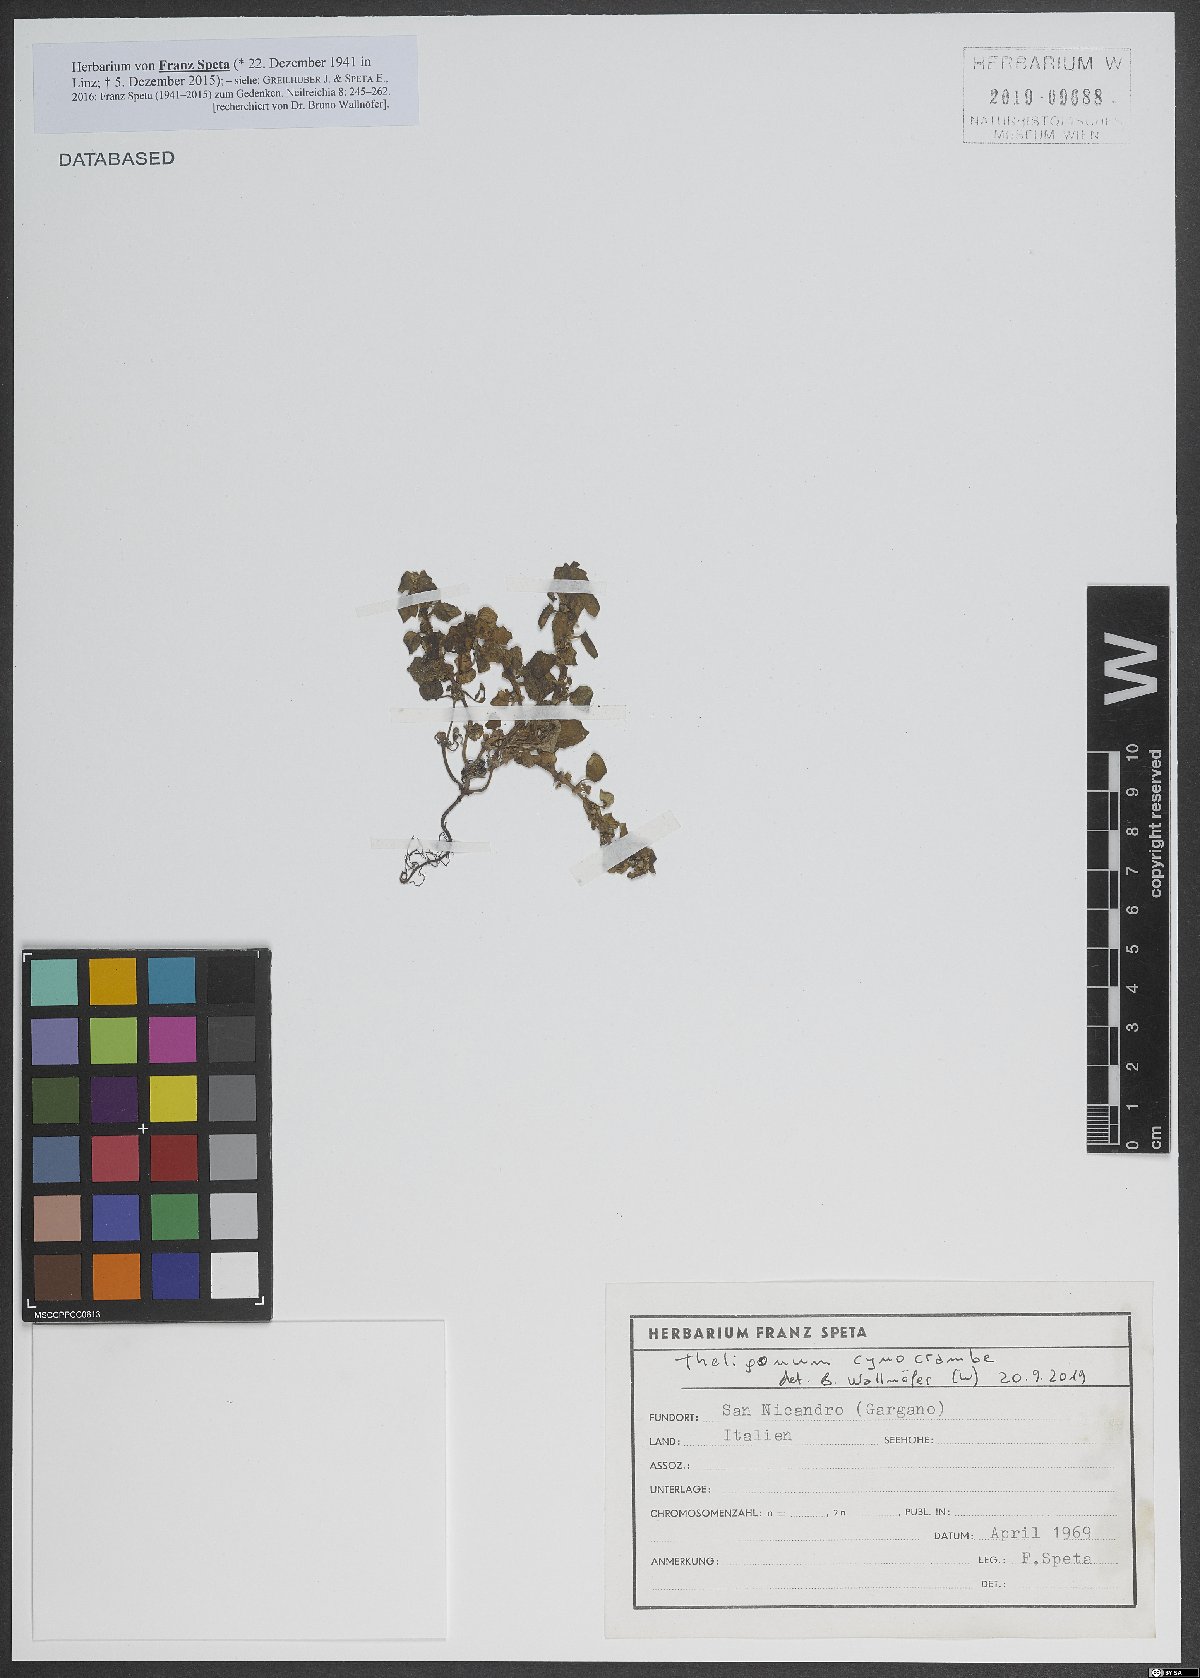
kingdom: Plantae
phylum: Tracheophyta
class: Magnoliopsida
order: Gentianales
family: Rubiaceae
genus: Theligonum
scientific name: Theligonum cynocrambe
